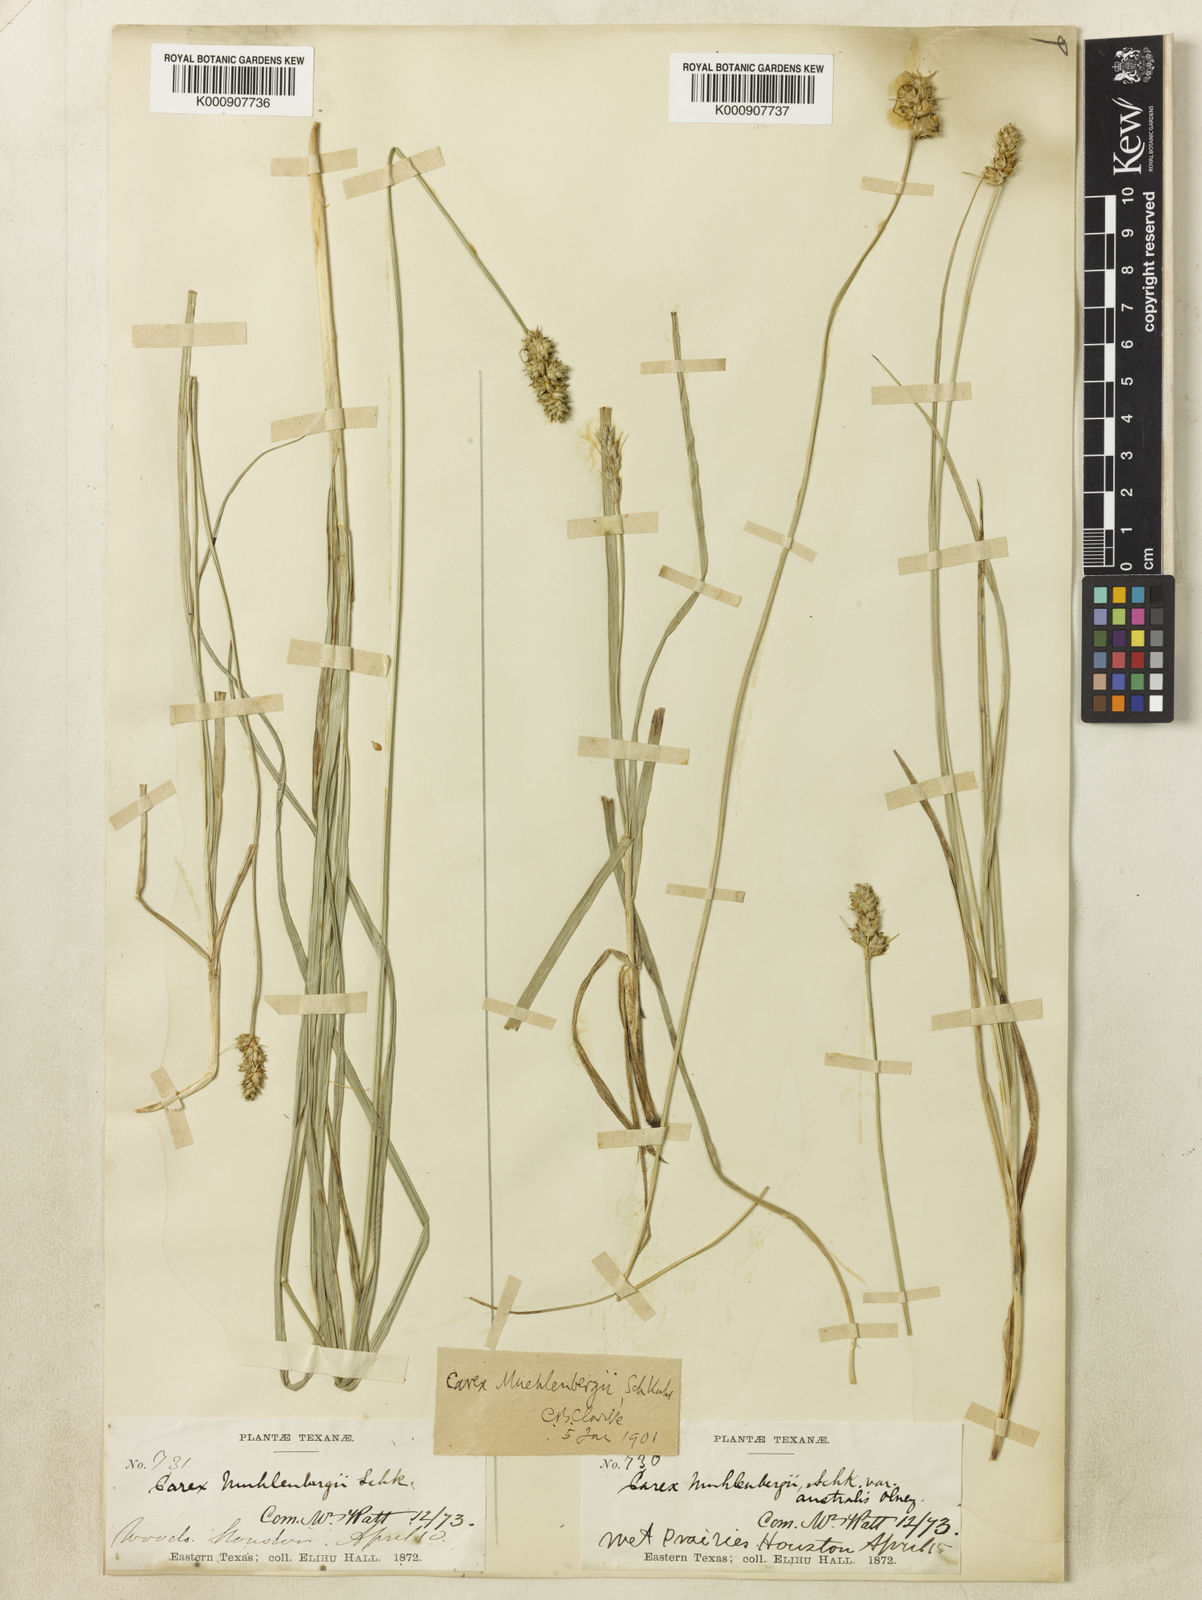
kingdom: Plantae
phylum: Tracheophyta
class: Liliopsida
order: Poales
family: Cyperaceae
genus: Carex
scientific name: Carex austrina
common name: Southern sedge
